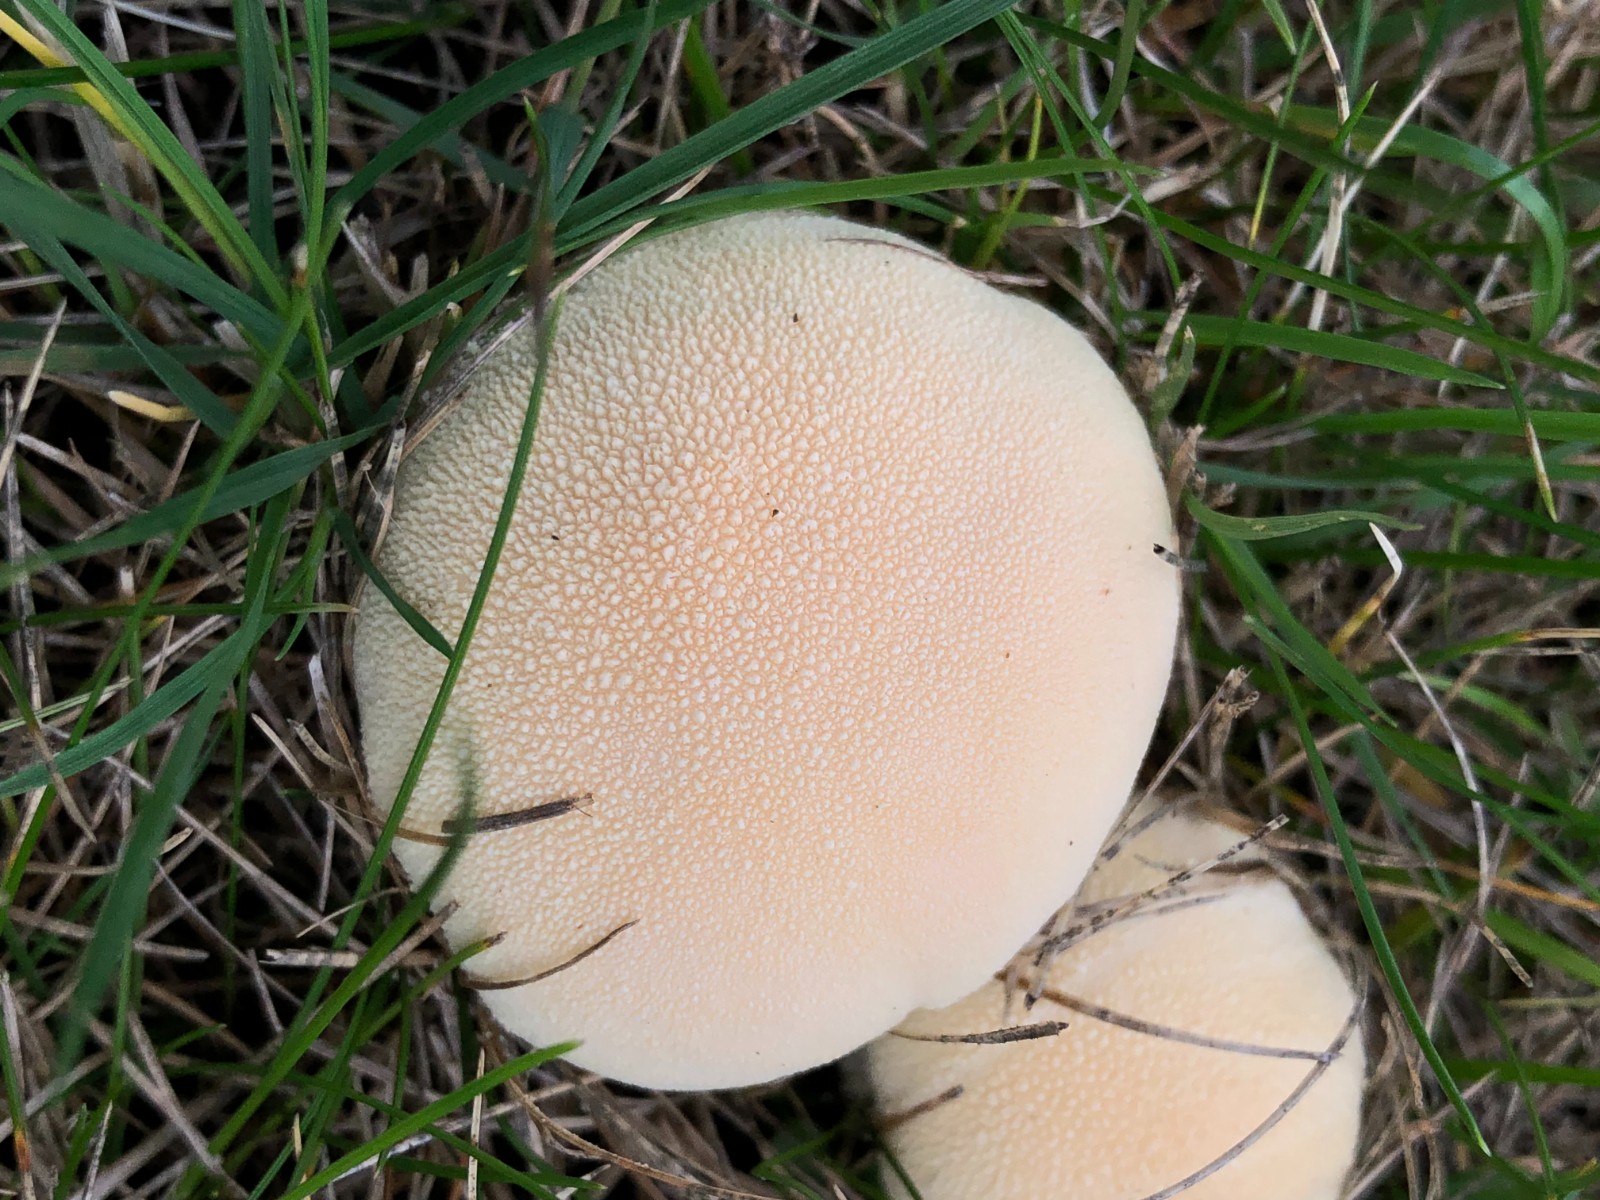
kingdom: Fungi
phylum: Basidiomycota
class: Agaricomycetes
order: Agaricales
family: Lycoperdaceae
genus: Lycoperdon
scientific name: Lycoperdon pratense
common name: flad støvbold
